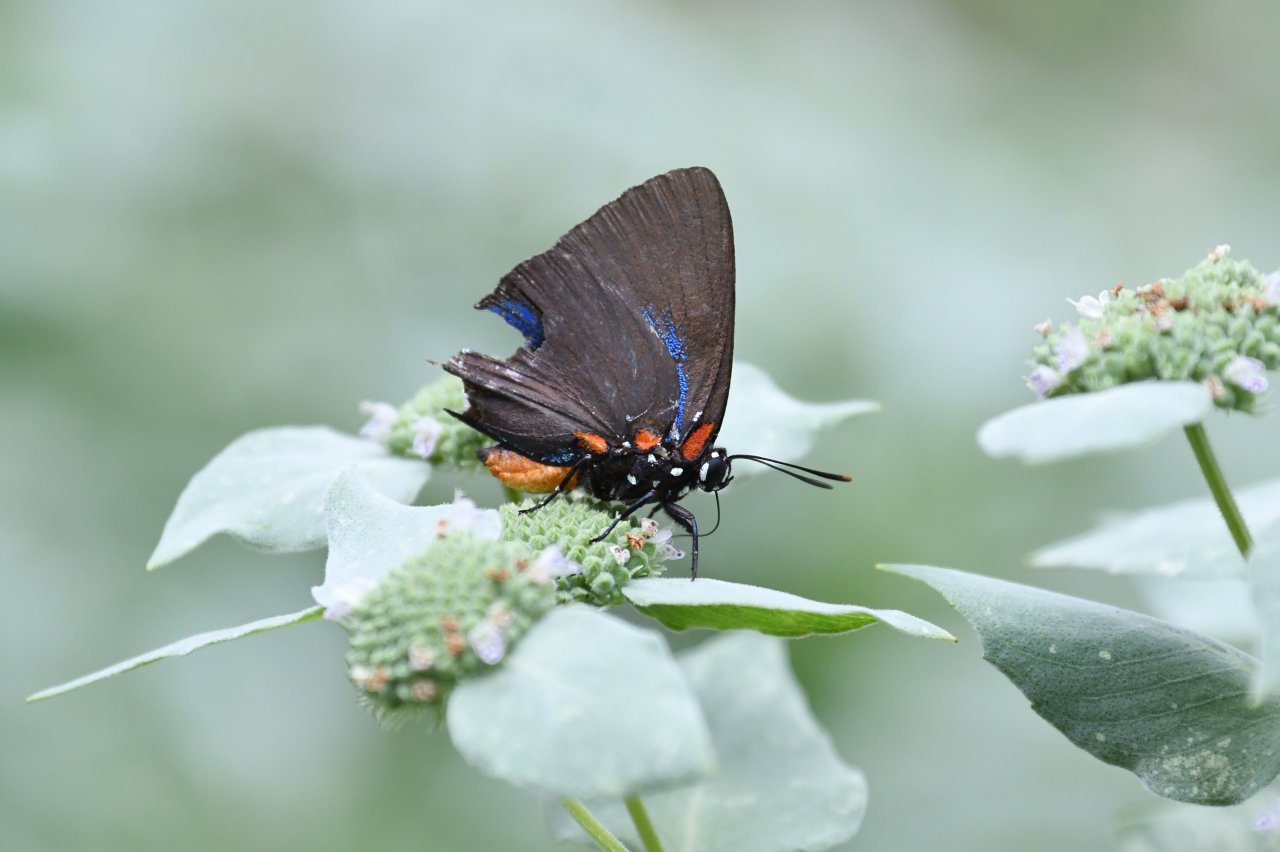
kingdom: Animalia
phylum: Arthropoda
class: Insecta
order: Lepidoptera
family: Lycaenidae
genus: Atlides
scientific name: Atlides halesus
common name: Great Purple Hairstreak
